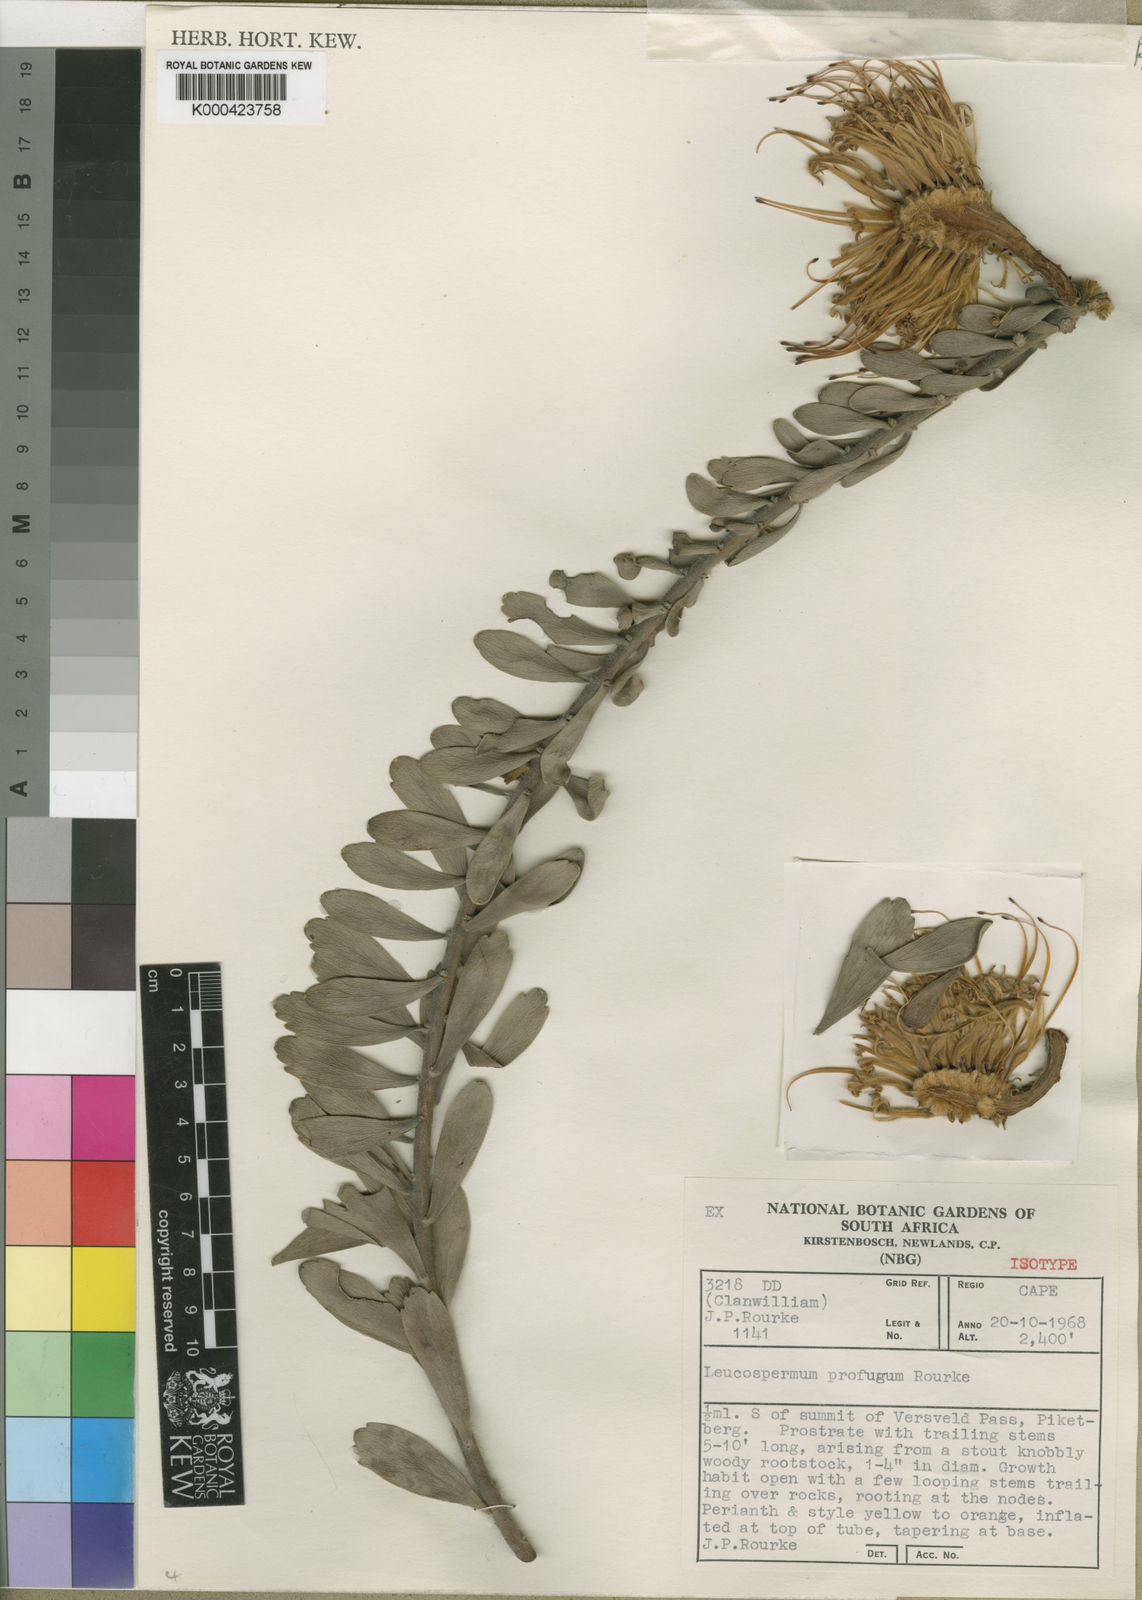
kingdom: Plantae
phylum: Tracheophyta
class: Magnoliopsida
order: Proteales
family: Proteaceae
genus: Leucospermum
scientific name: Leucospermum profugum
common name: Piketberg pincushion
